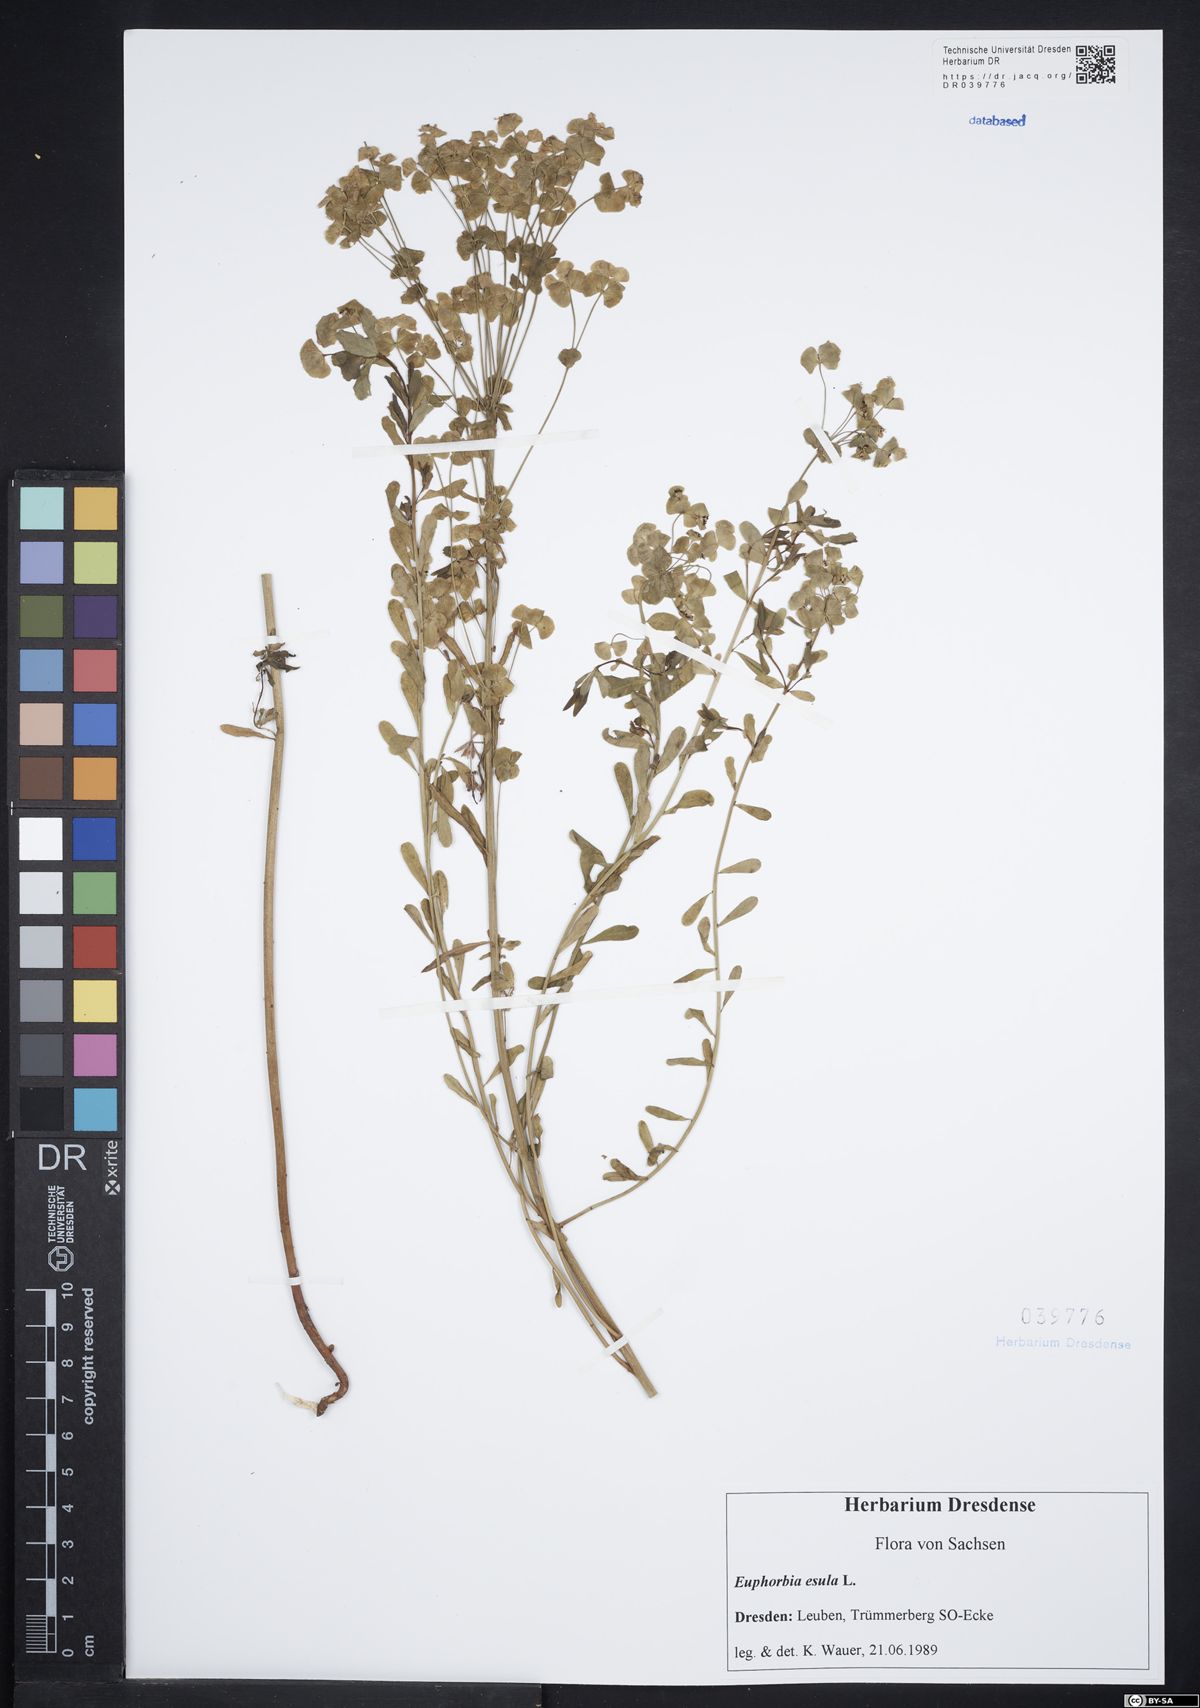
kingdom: Plantae
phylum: Tracheophyta
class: Magnoliopsida
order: Malpighiales
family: Euphorbiaceae
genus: Euphorbia
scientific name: Euphorbia esula
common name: Leafy spurge
